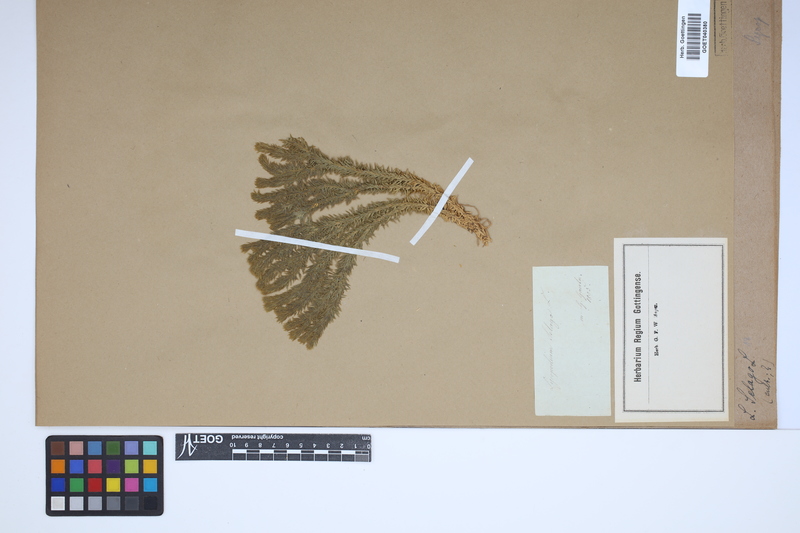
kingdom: Plantae
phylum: Tracheophyta
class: Lycopodiopsida
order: Lycopodiales
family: Lycopodiaceae
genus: Huperzia
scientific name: Huperzia selago
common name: Northern firmoss
